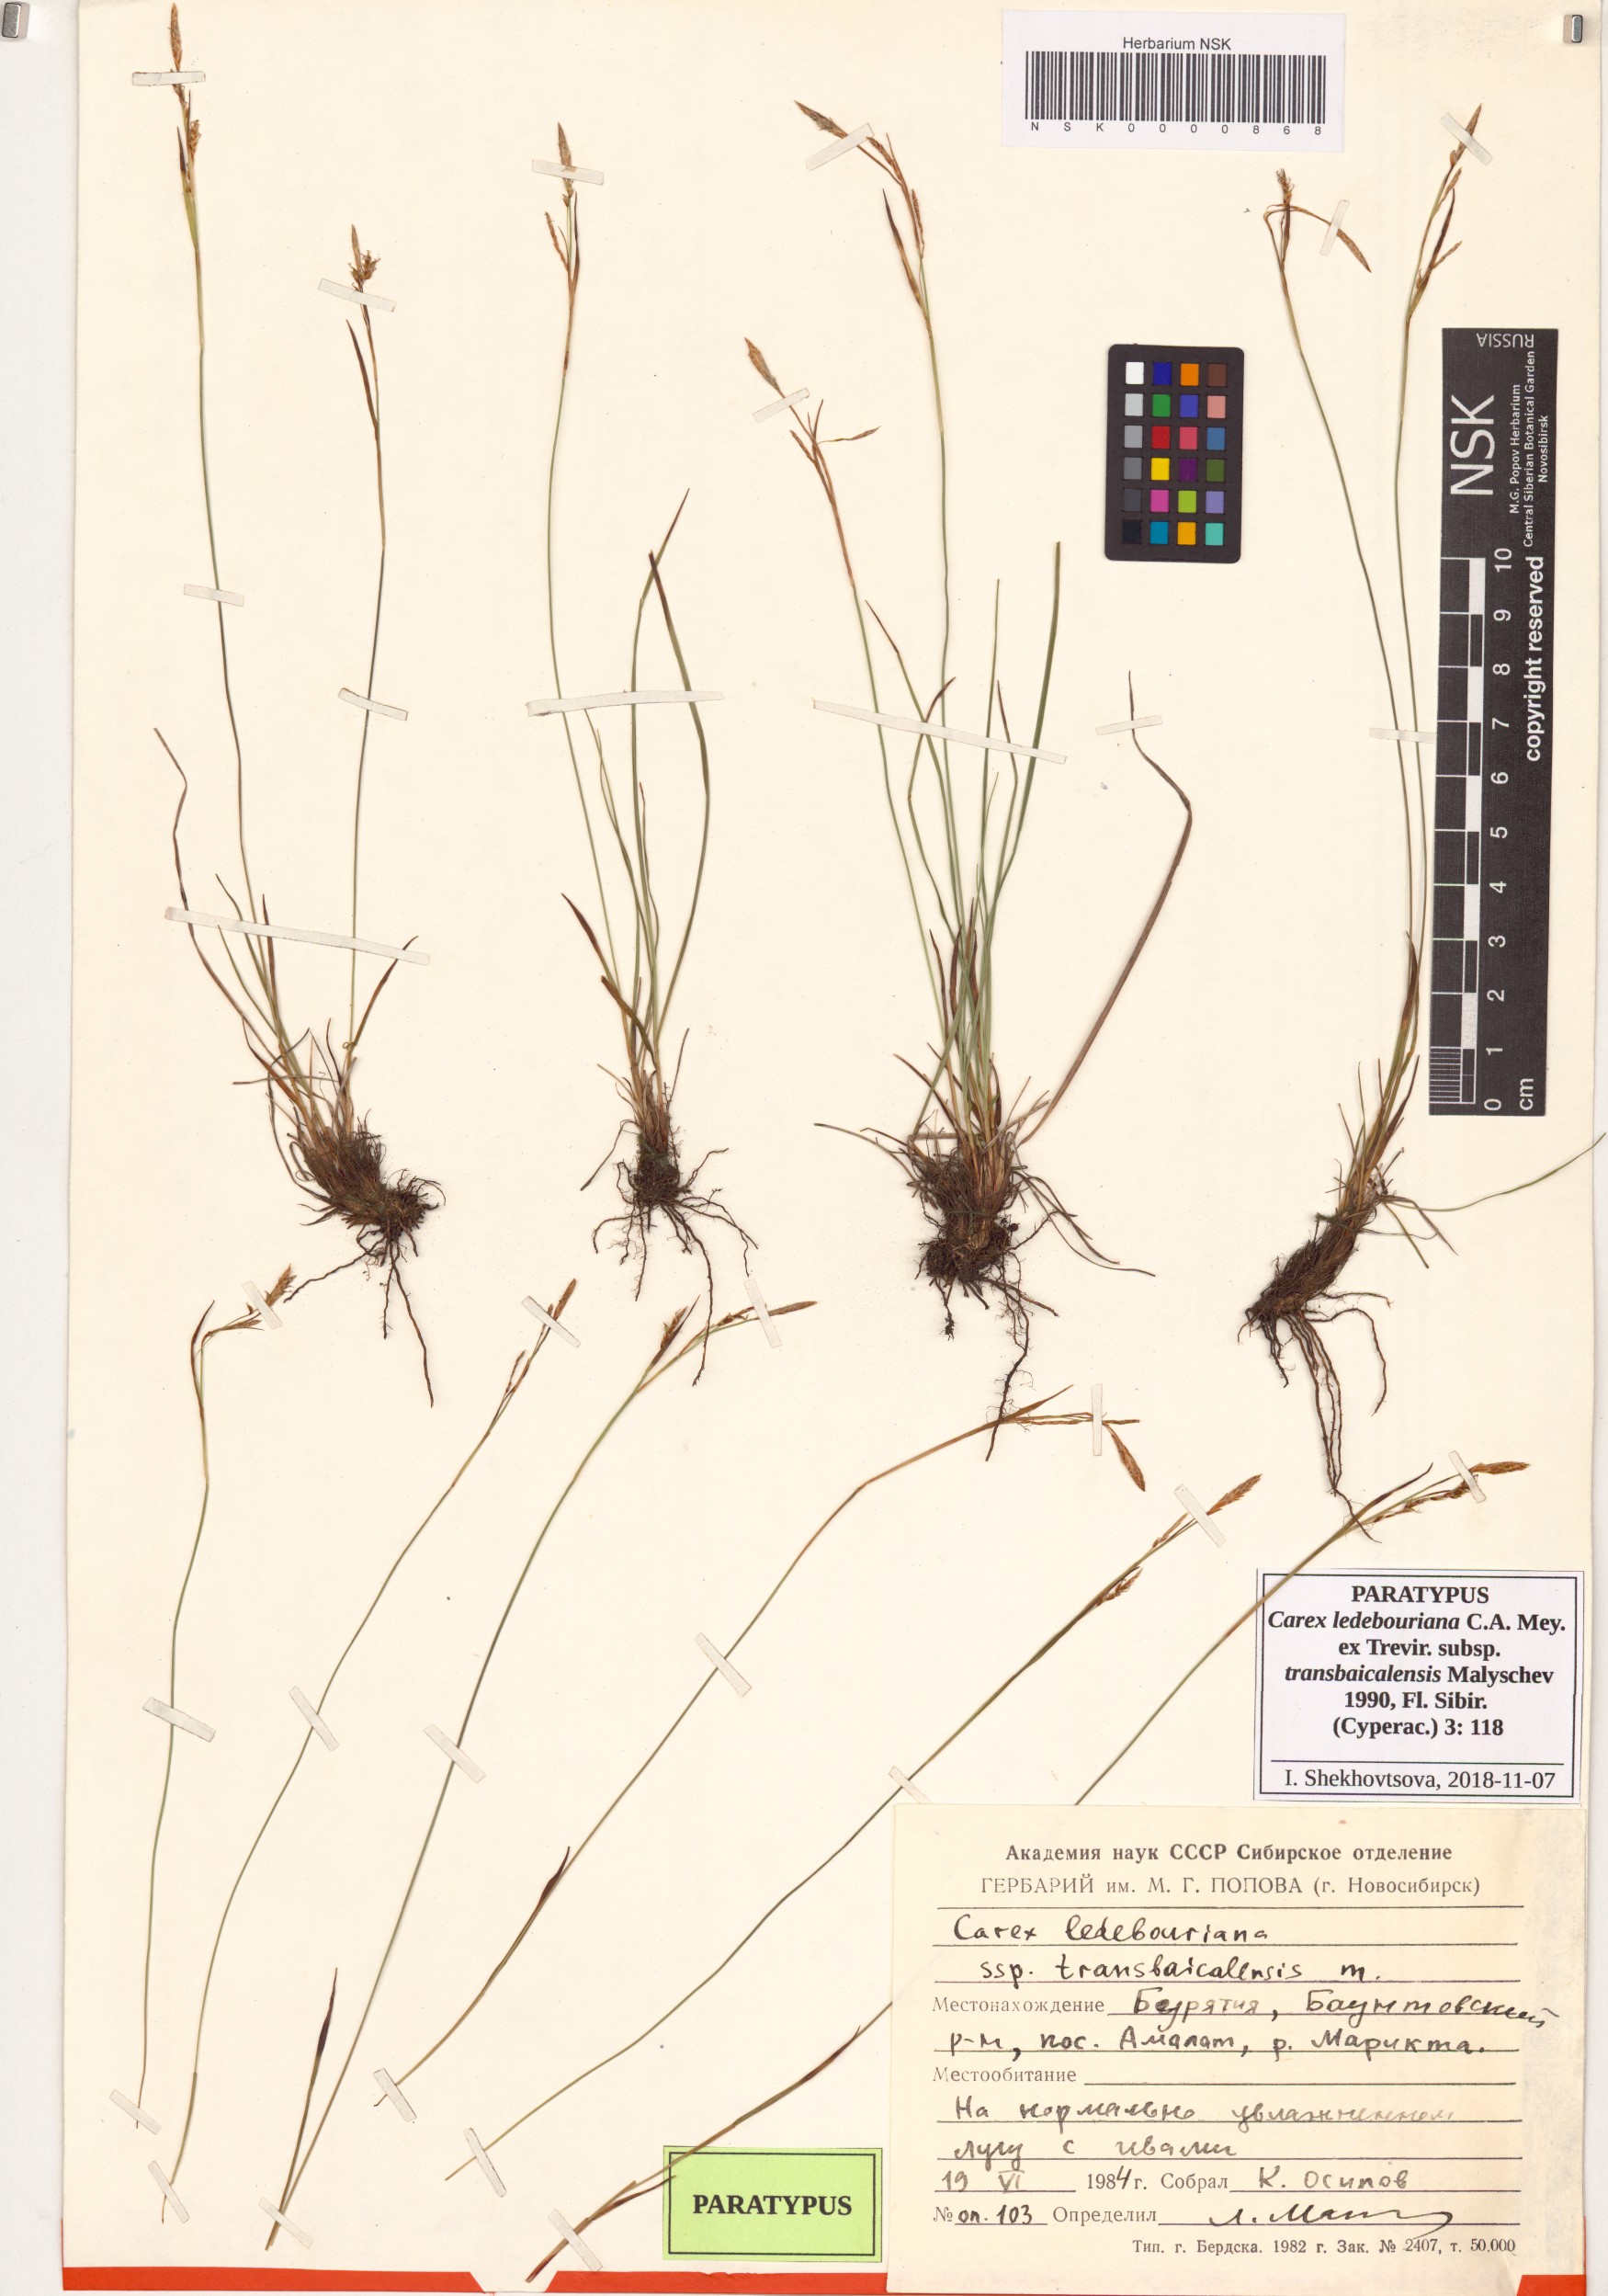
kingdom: Plantae
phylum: Tracheophyta
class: Liliopsida
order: Poales
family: Cyperaceae
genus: Carex
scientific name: Carex ledebouriana
